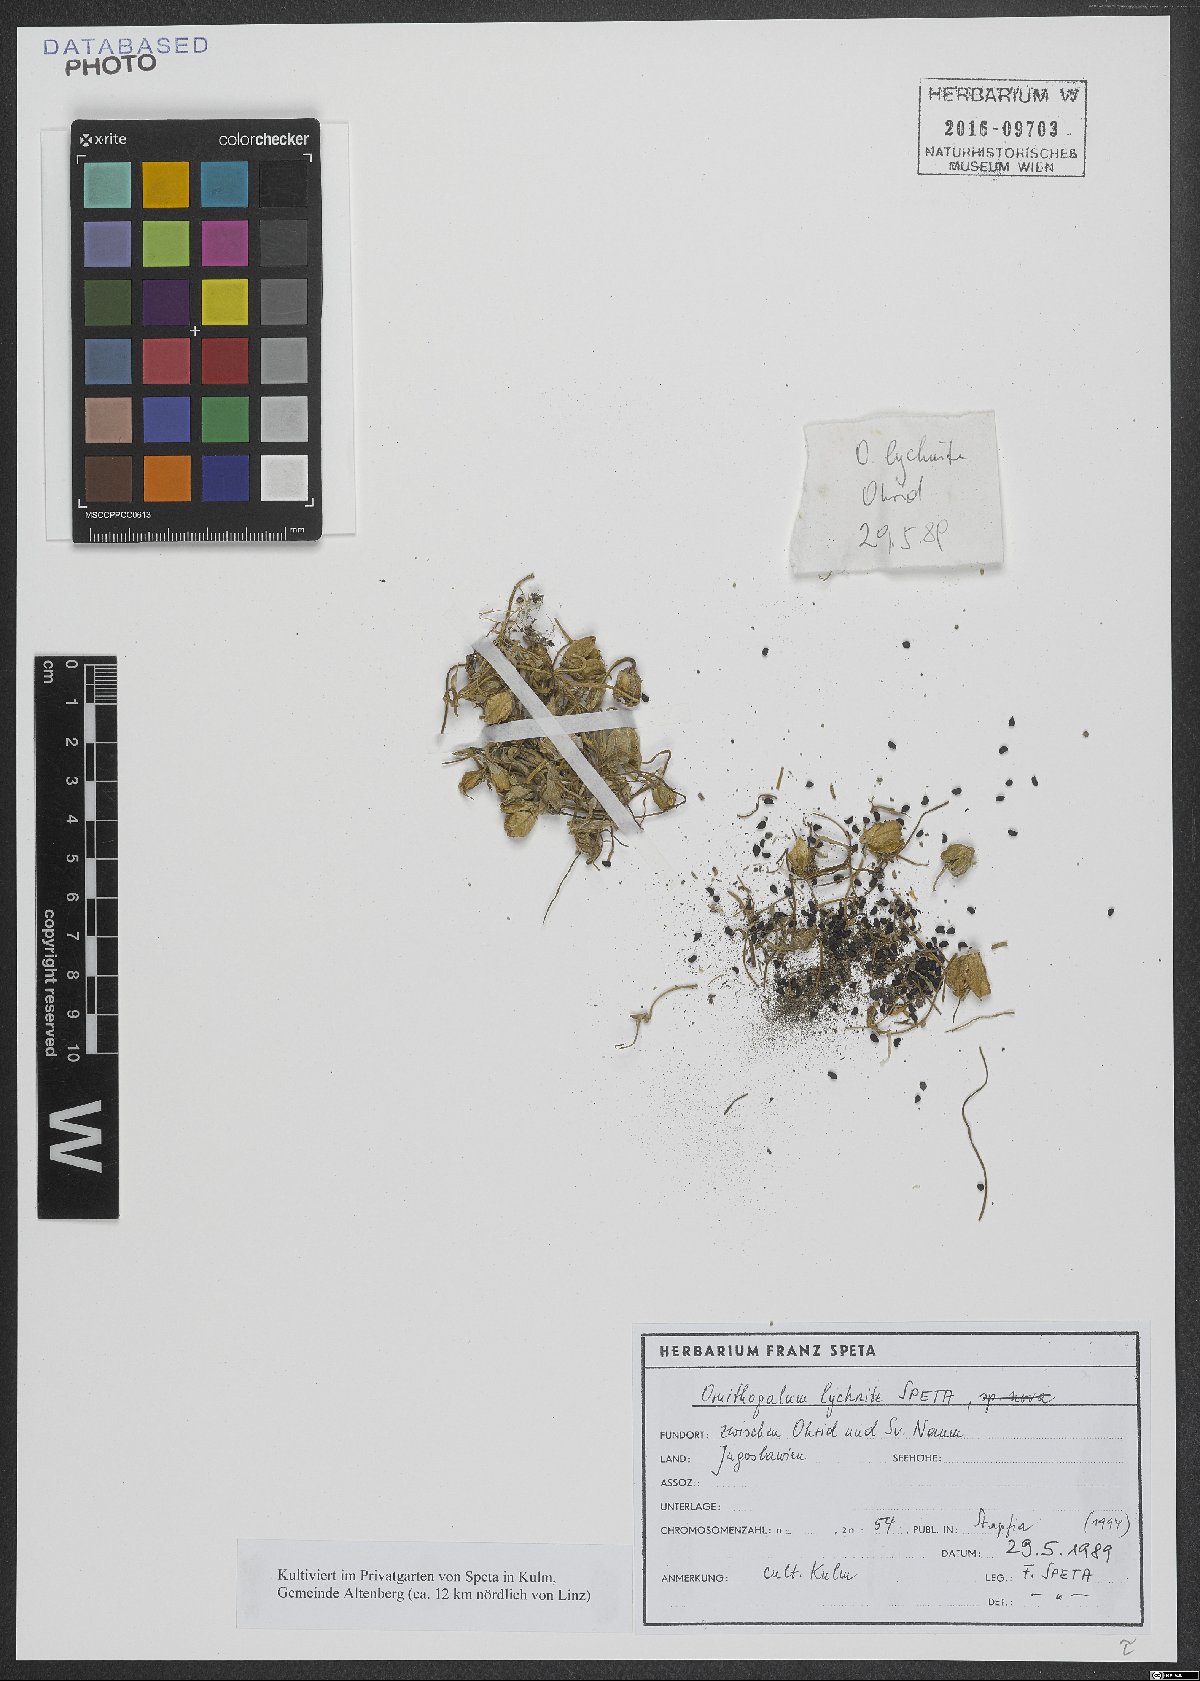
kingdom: Plantae
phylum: Tracheophyta
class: Liliopsida
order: Asparagales
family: Asparagaceae
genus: Ornithogalum
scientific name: Ornithogalum lychnite
